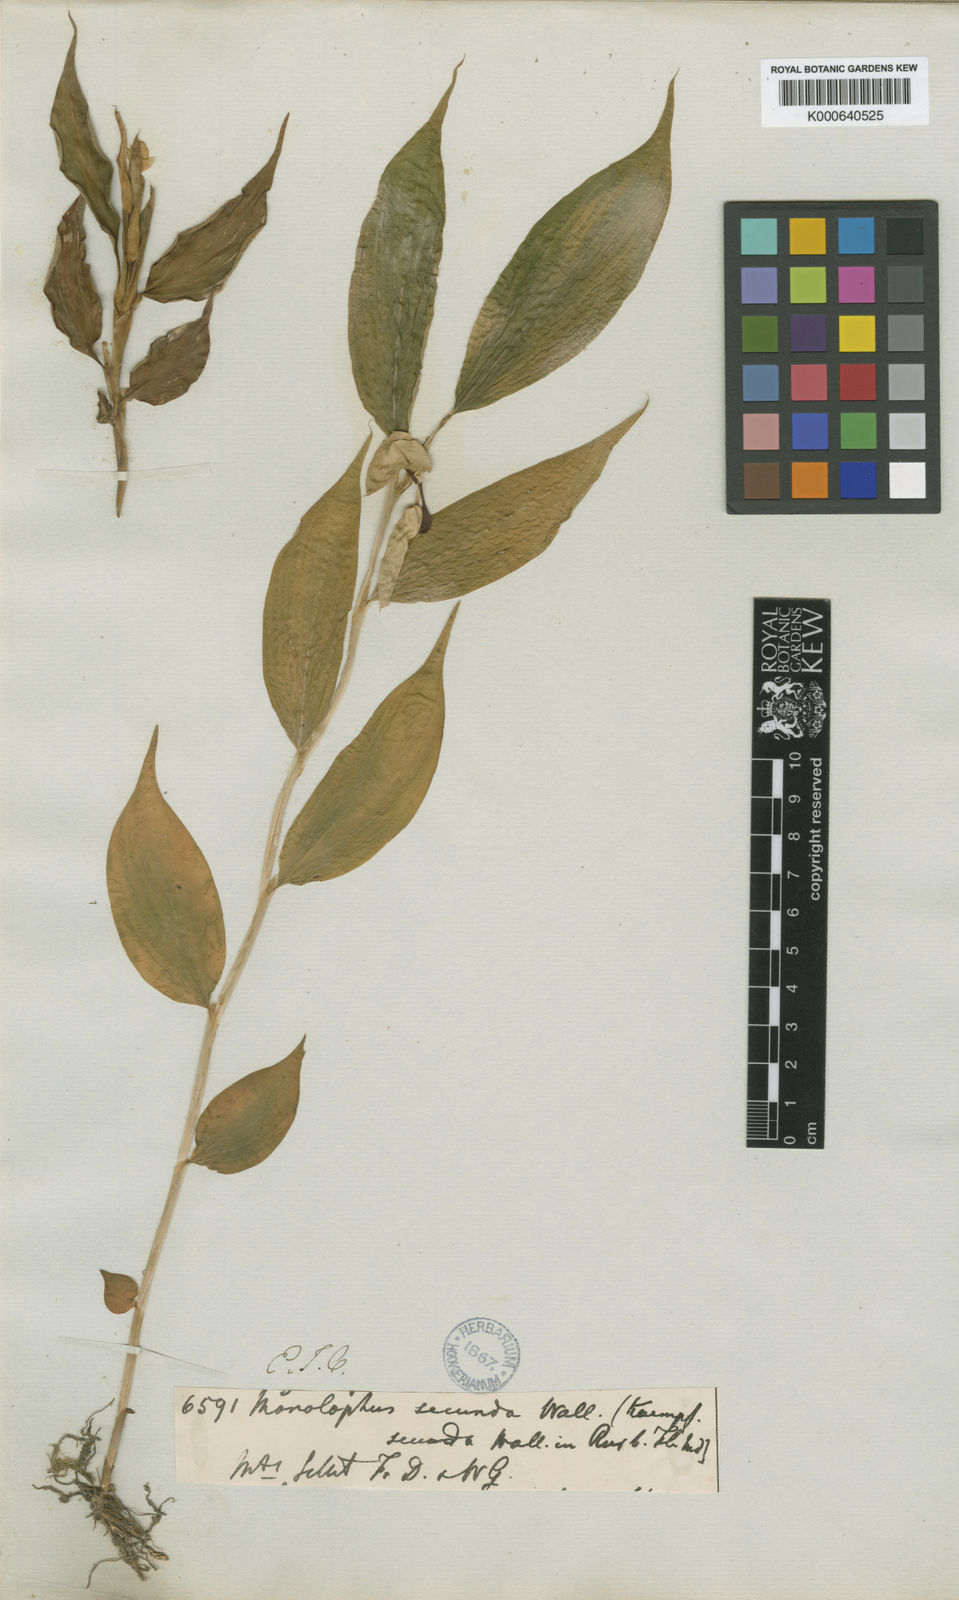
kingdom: Plantae
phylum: Tracheophyta
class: Liliopsida
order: Zingiberales
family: Zingiberaceae
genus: Caulokaempferia
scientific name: Caulokaempferia secunda
